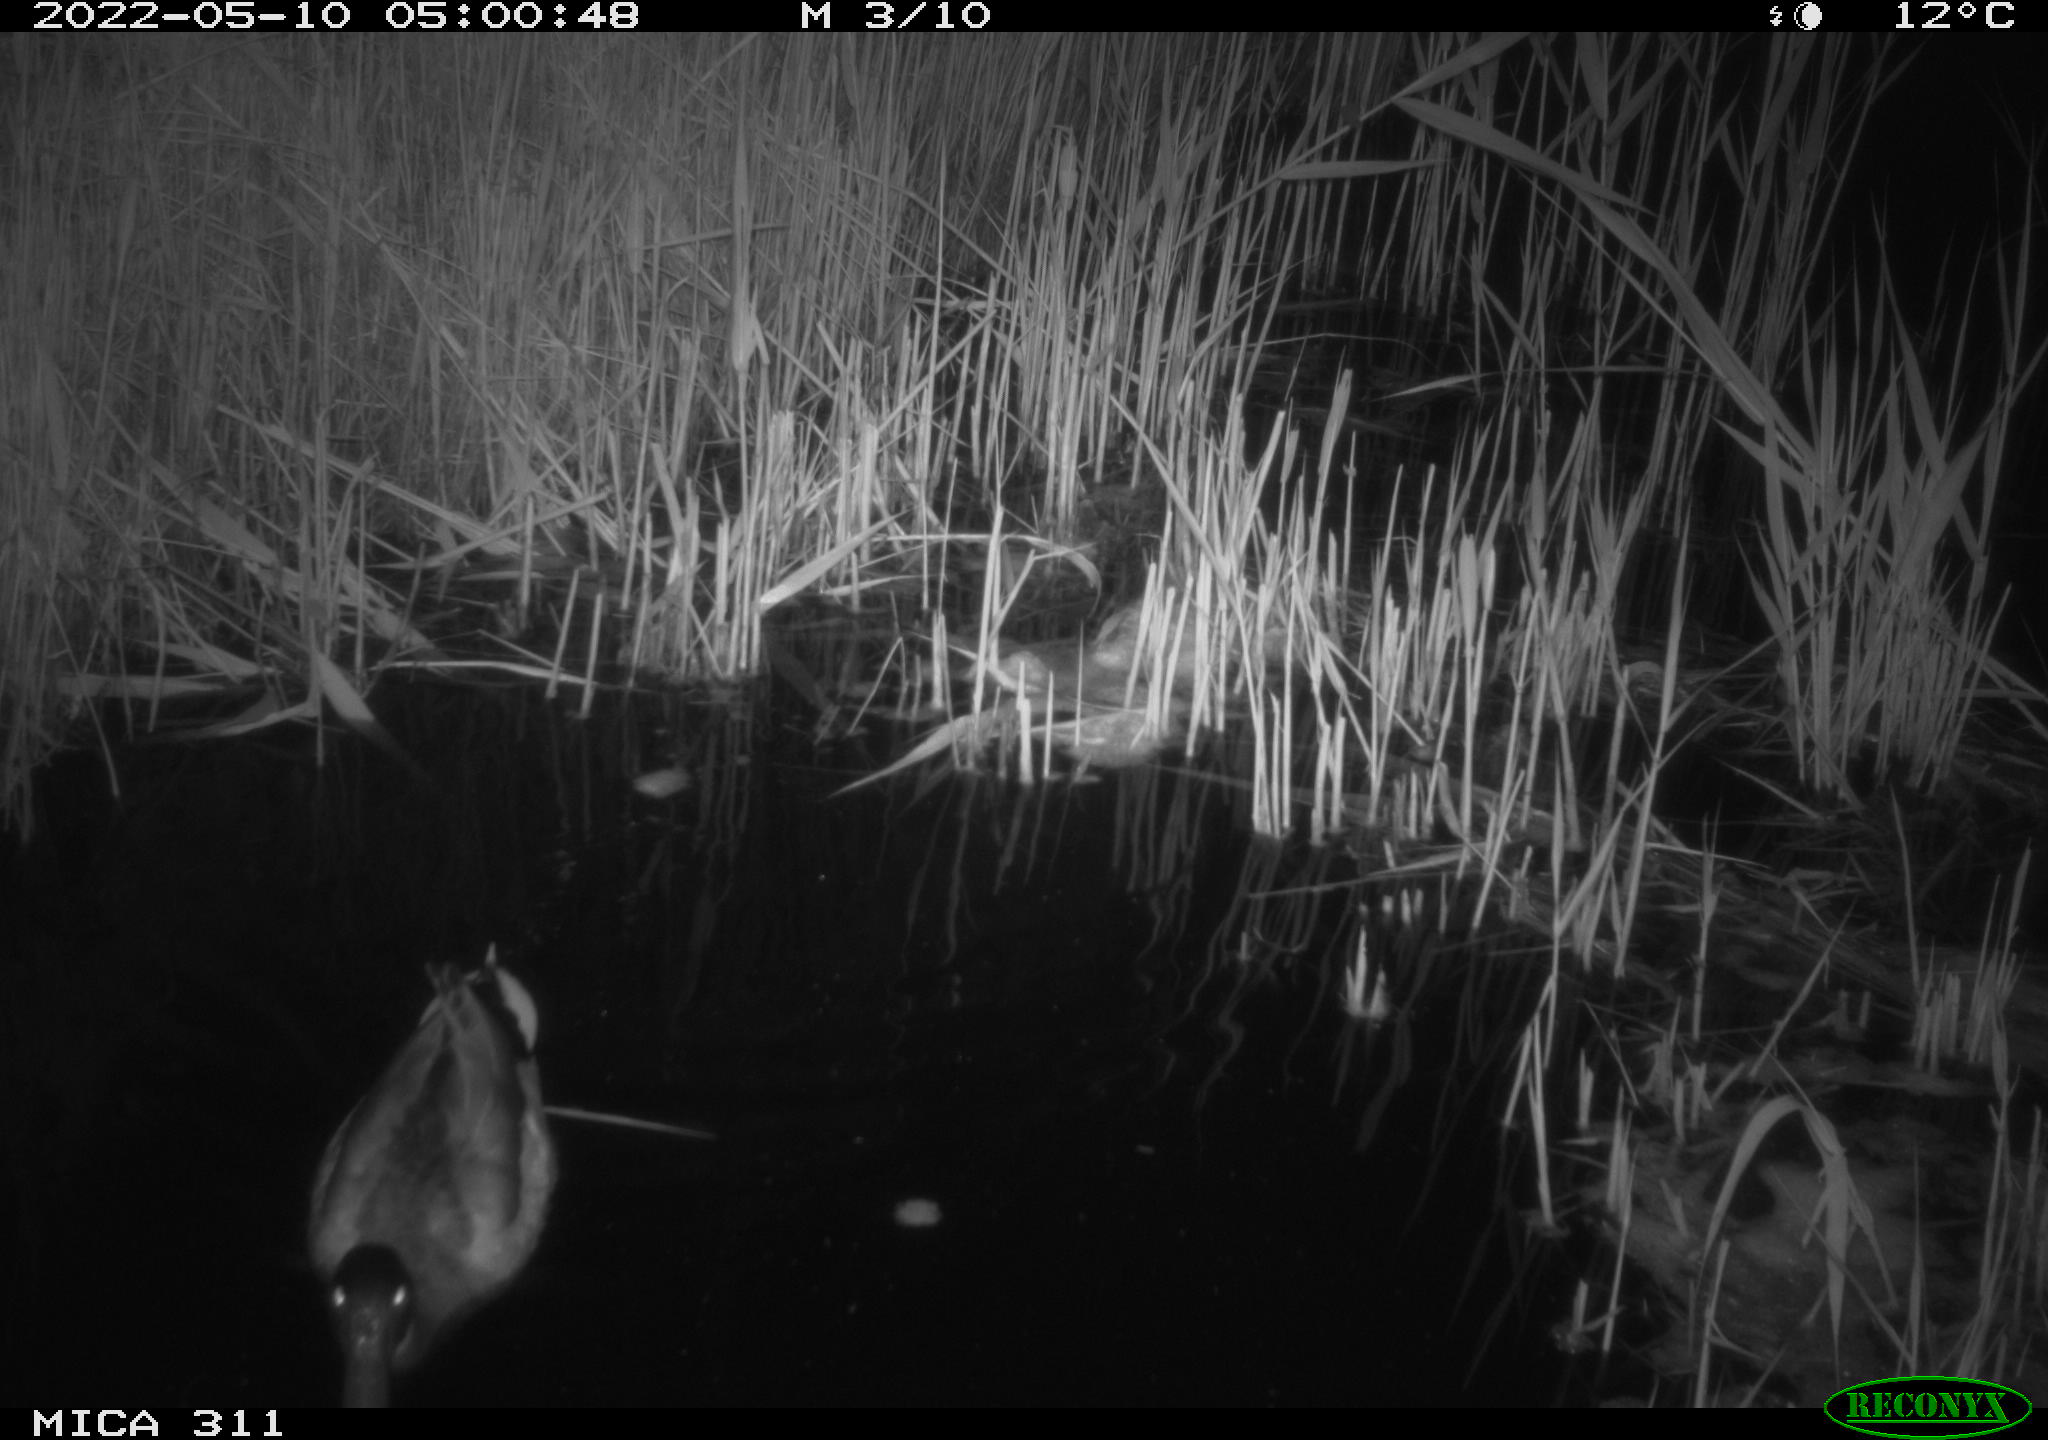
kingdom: Animalia
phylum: Chordata
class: Aves
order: Anseriformes
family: Anatidae
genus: Anas
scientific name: Anas platyrhynchos
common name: Mallard
